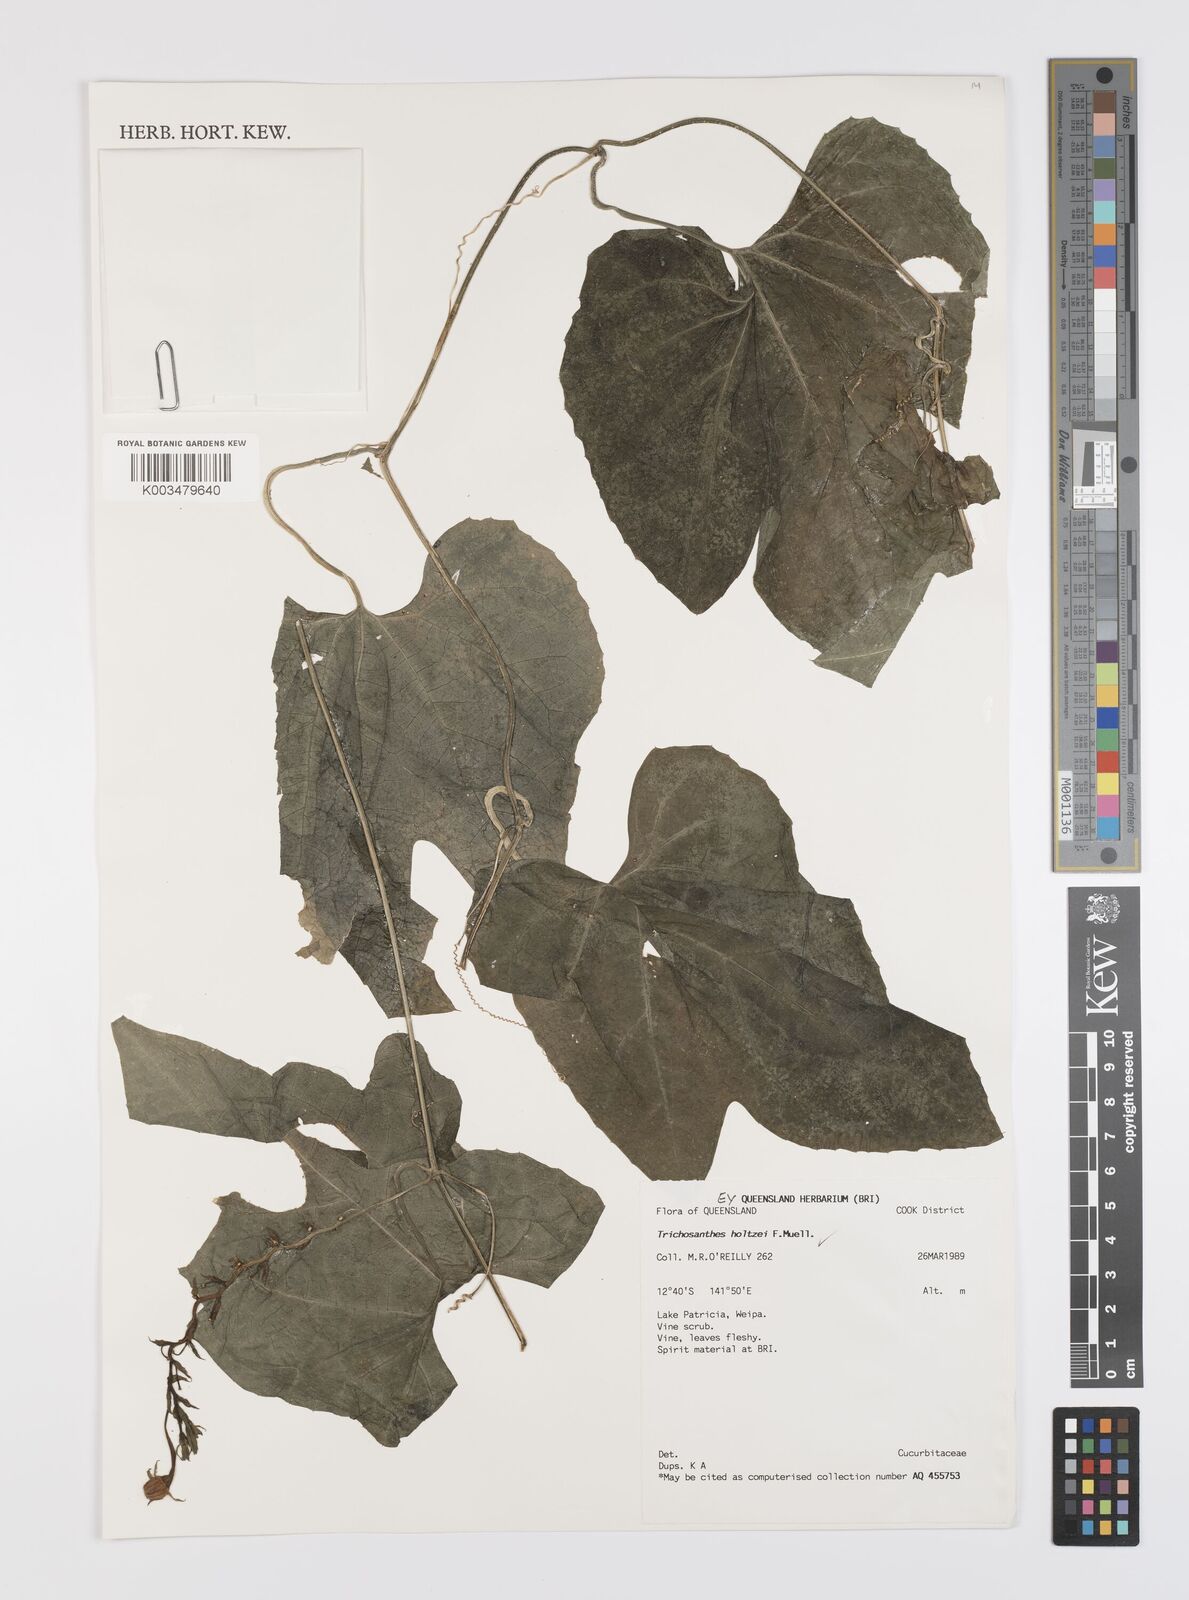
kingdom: Plantae
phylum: Tracheophyta
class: Magnoliopsida
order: Cucurbitales
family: Cucurbitaceae
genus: Trichosanthes
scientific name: Trichosanthes holtzei
